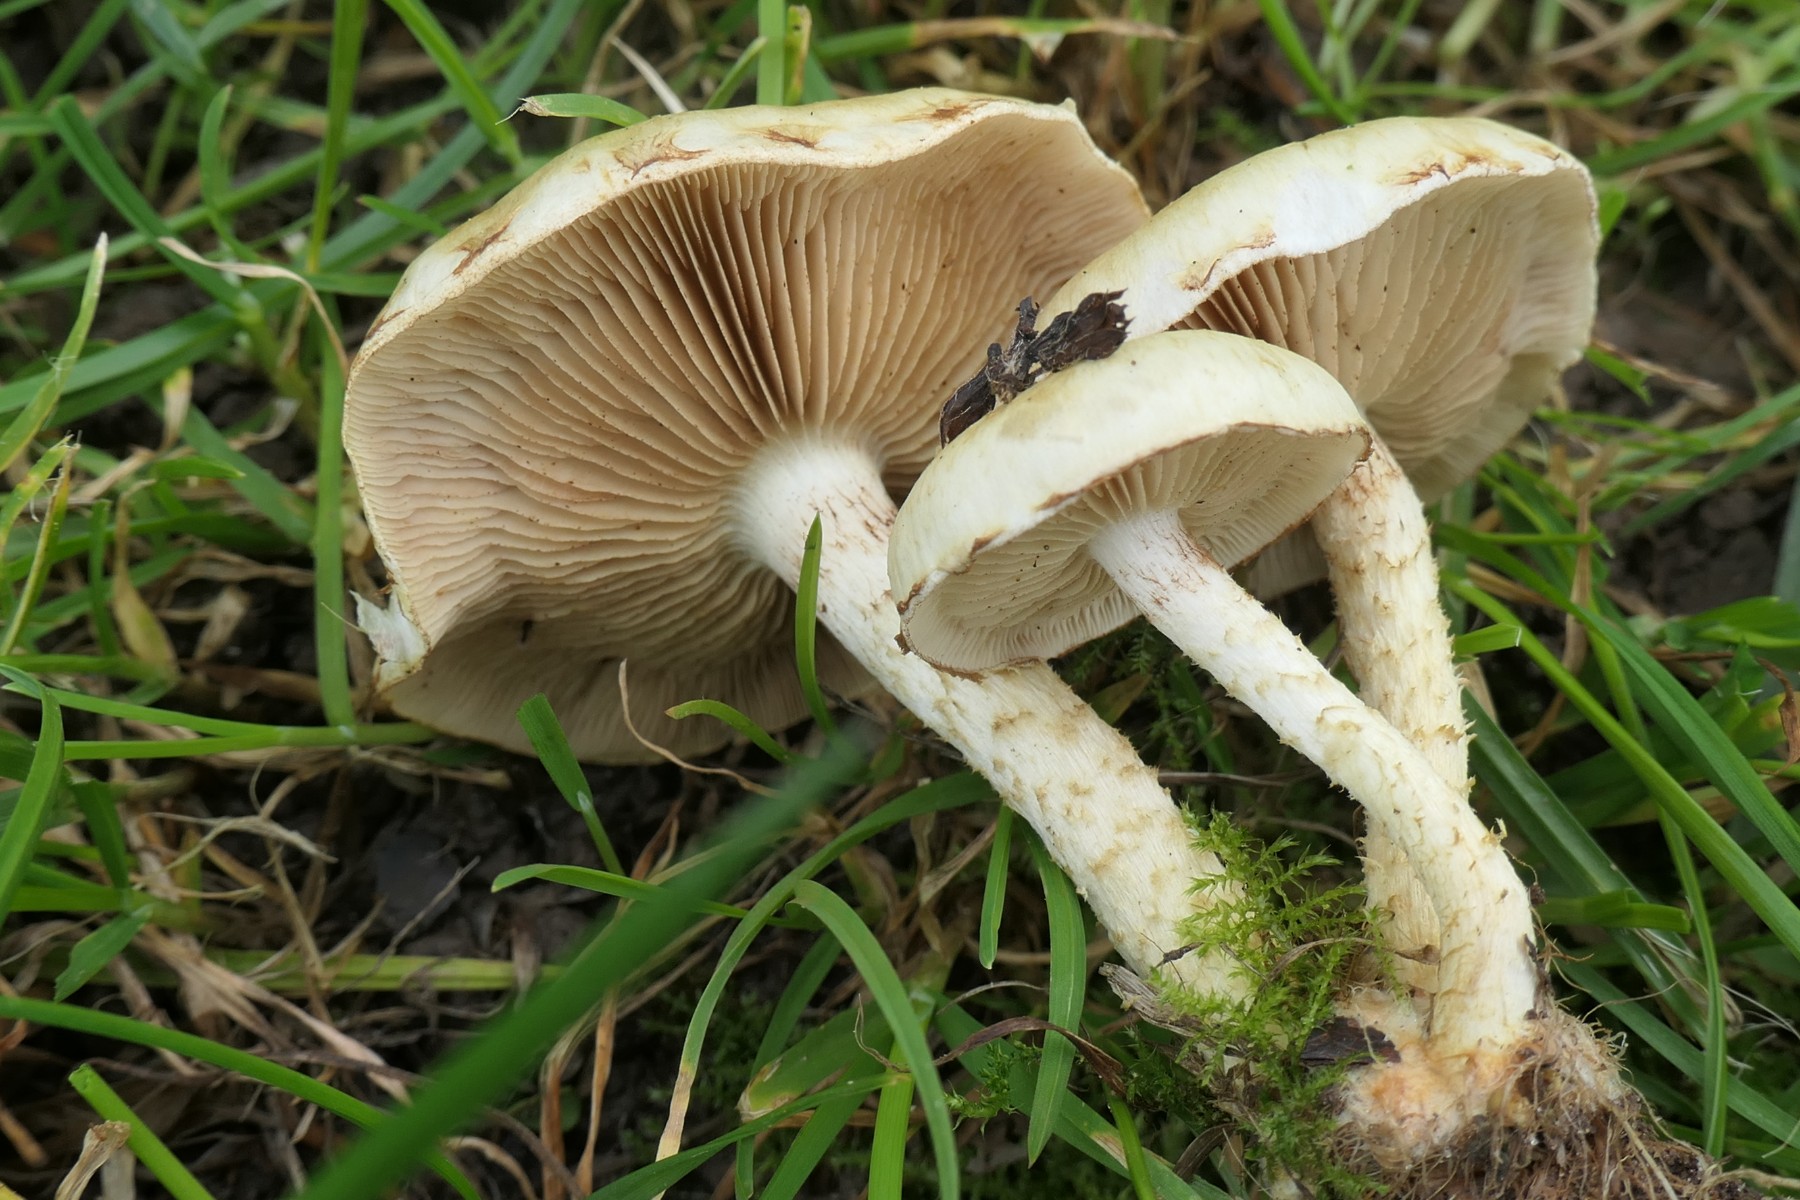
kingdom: Fungi
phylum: Basidiomycota
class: Agaricomycetes
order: Agaricales
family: Strophariaceae
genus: Pholiota
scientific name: Pholiota gummosa
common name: grøngul skælhat
